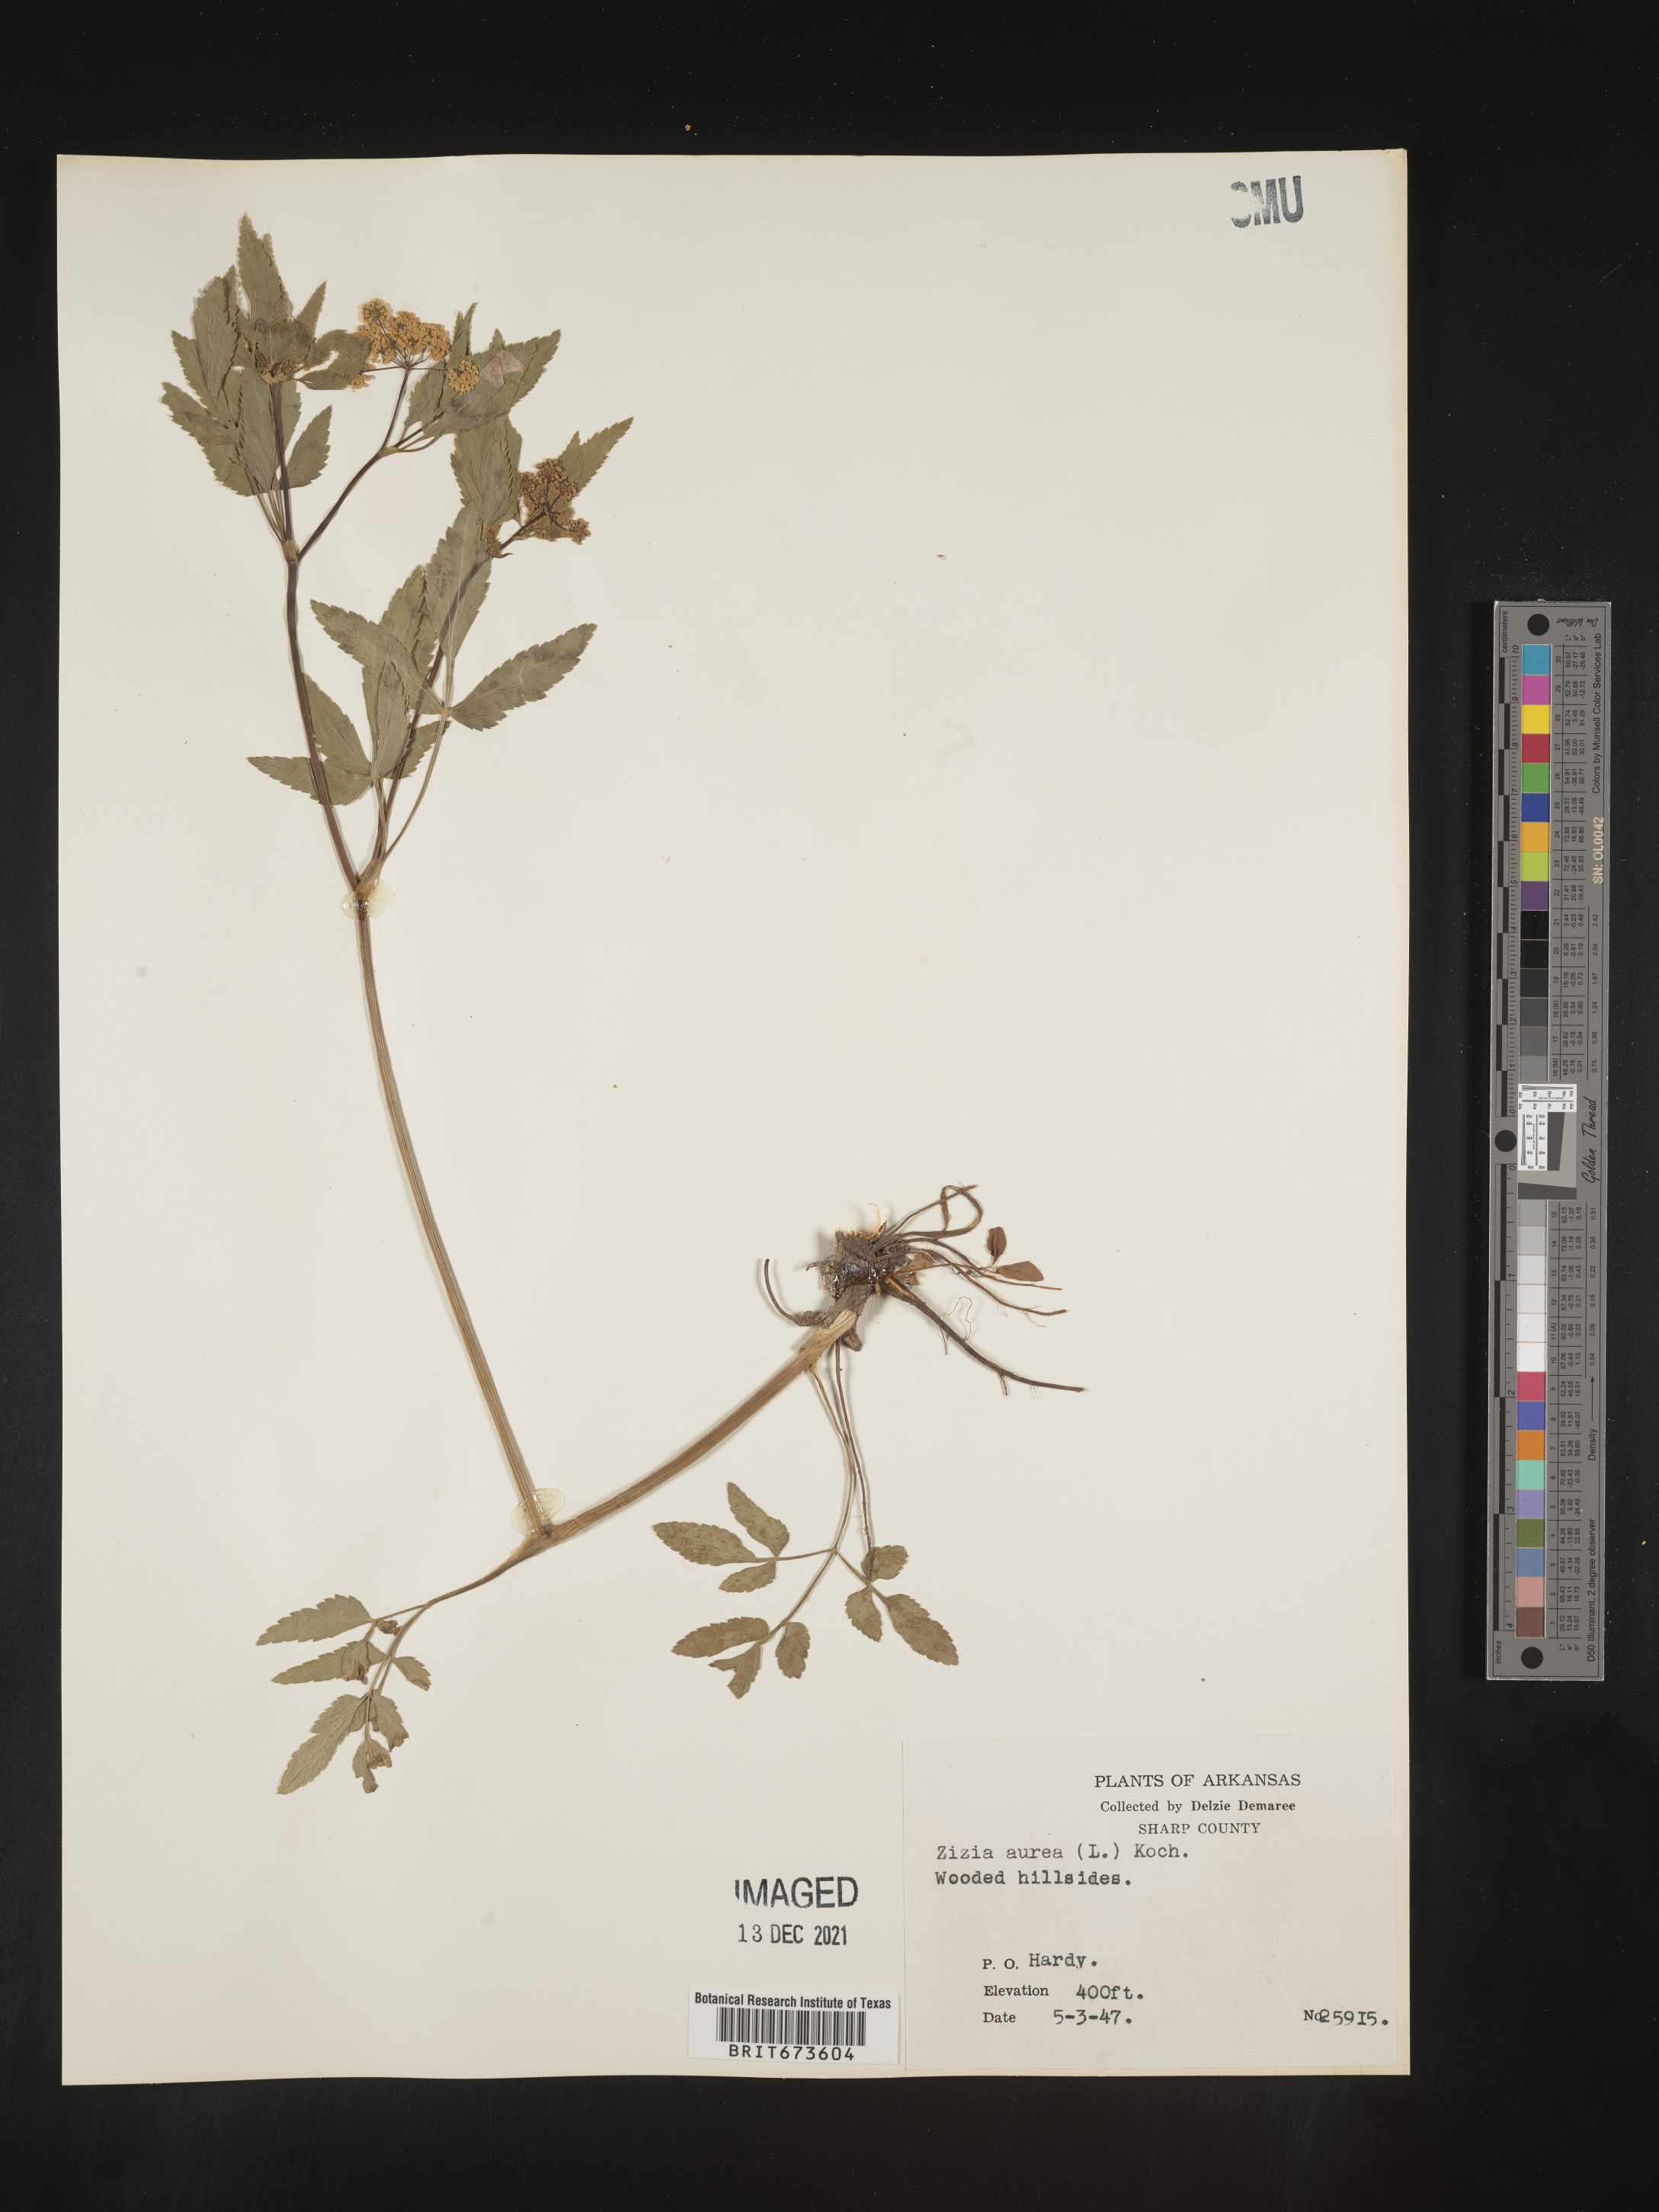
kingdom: Plantae
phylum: Tracheophyta
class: Magnoliopsida
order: Apiales
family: Apiaceae
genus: Zizia
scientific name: Zizia aurea
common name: Golden alexanders
